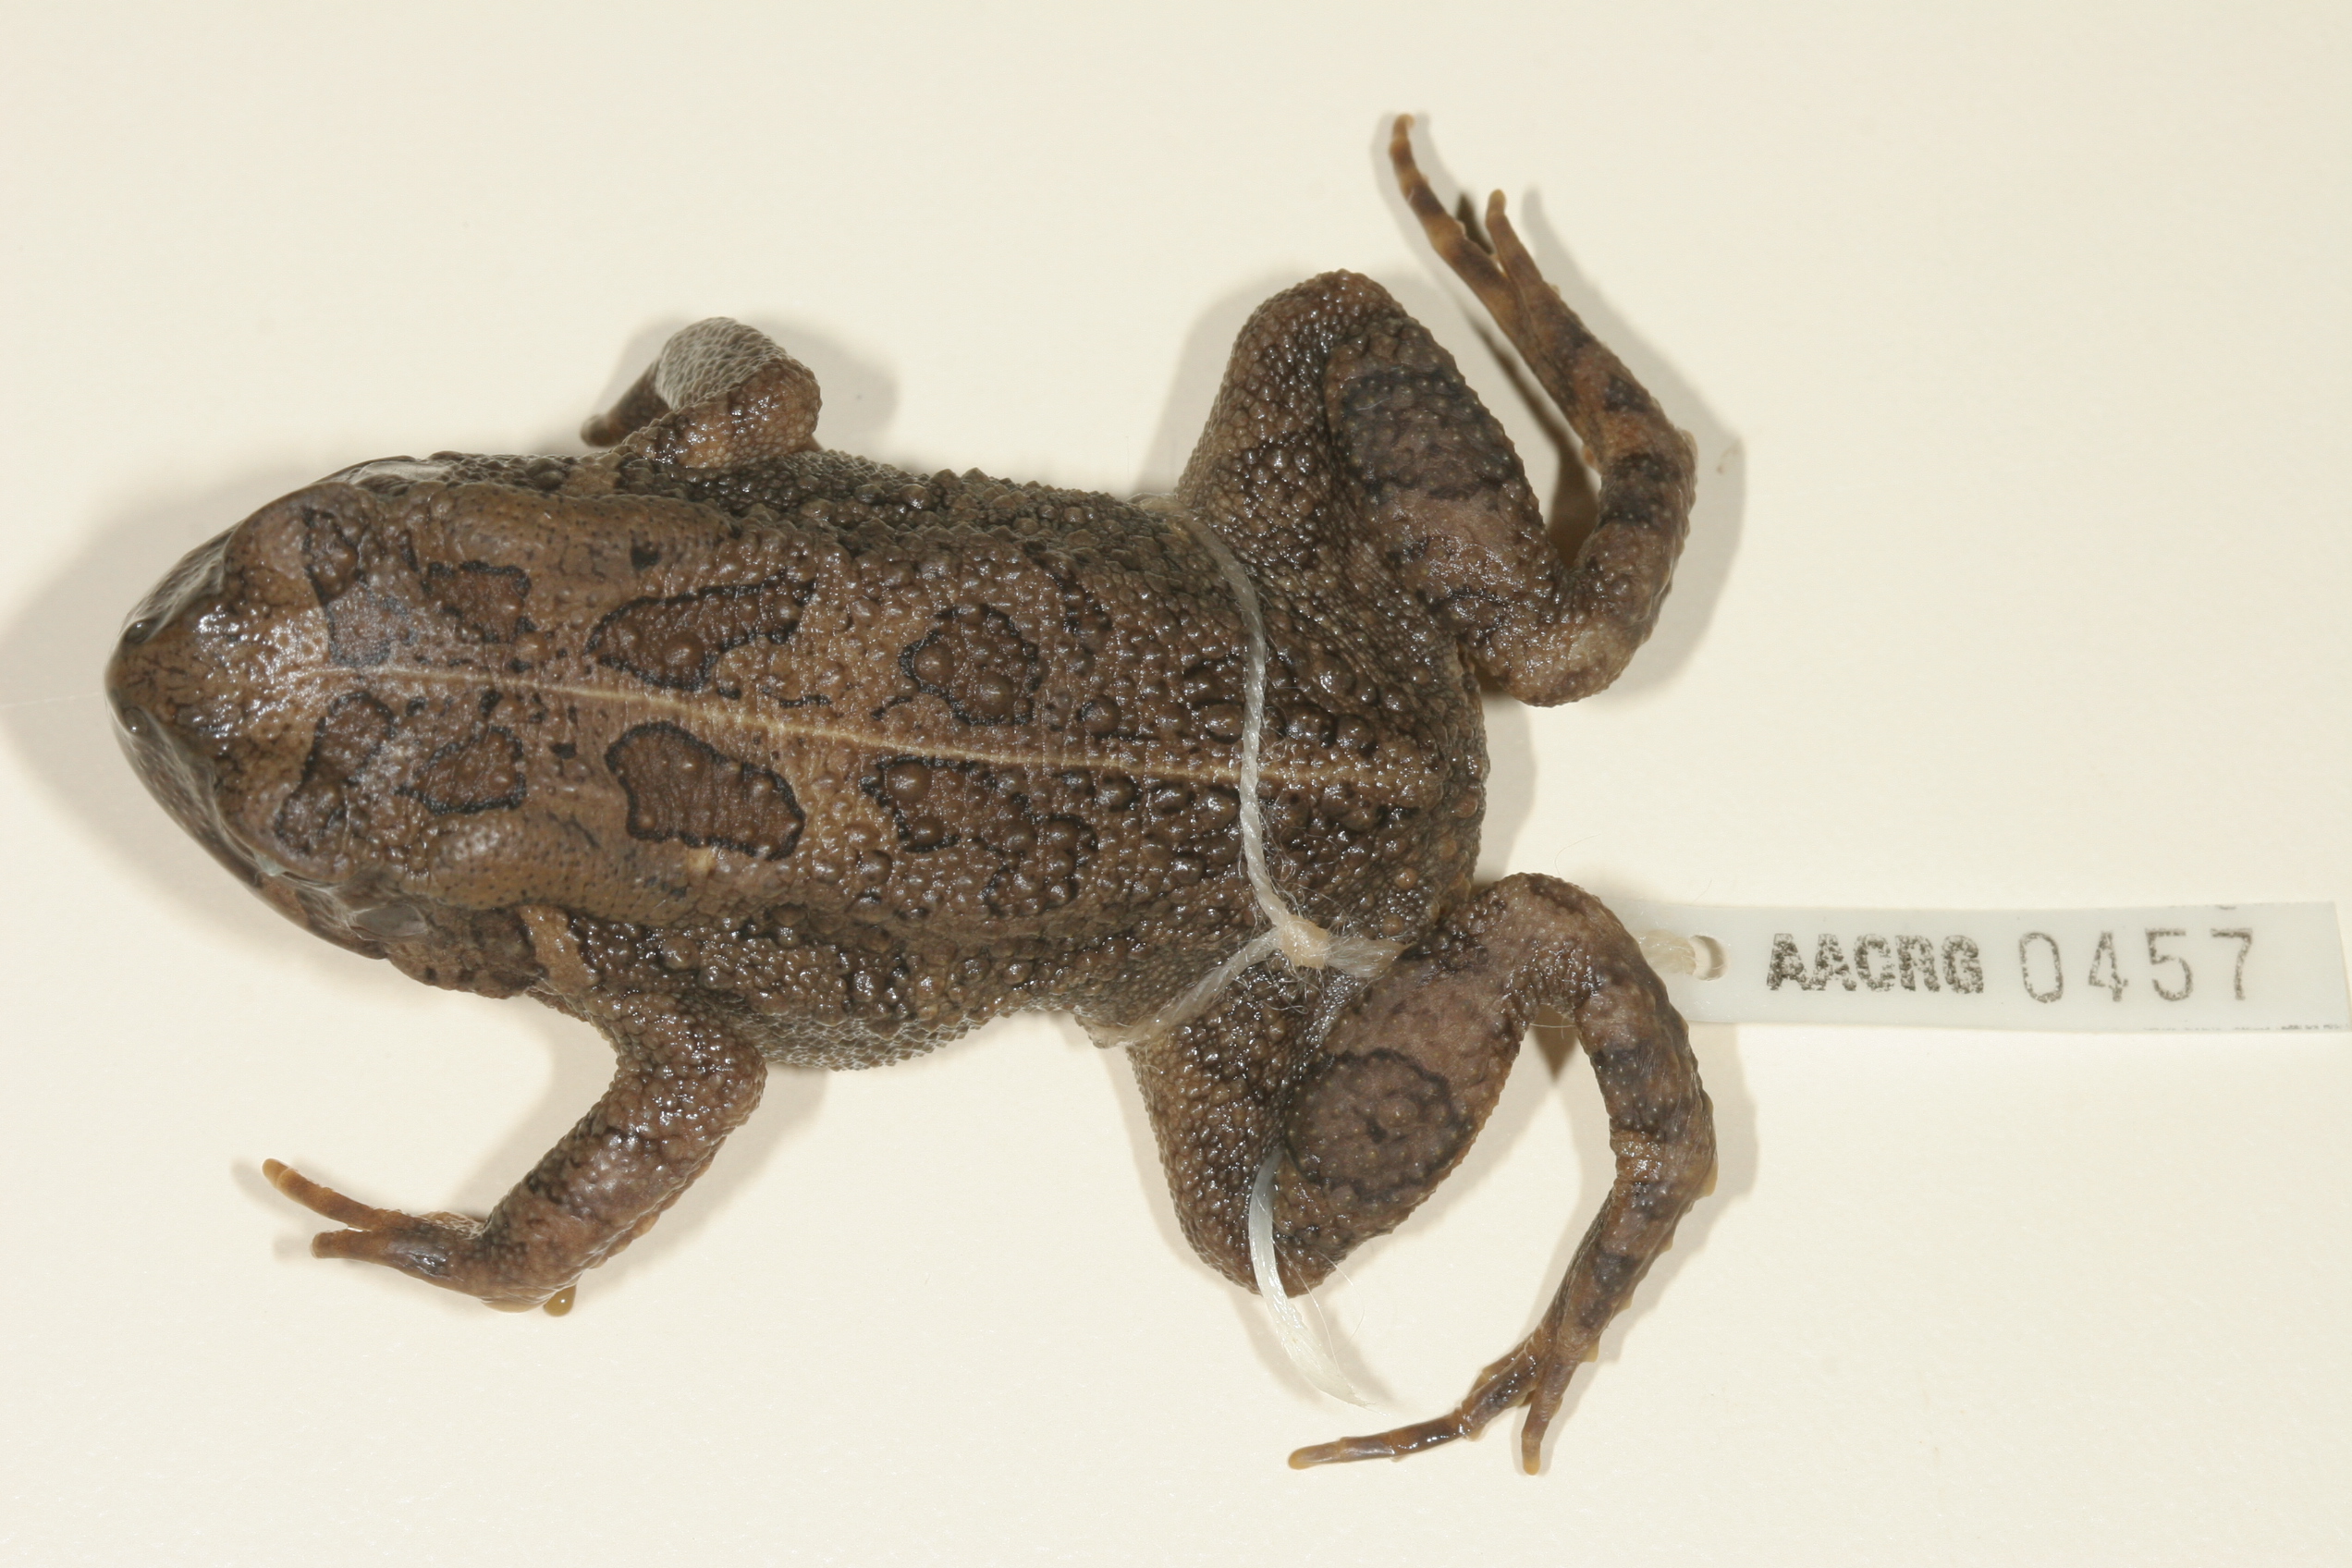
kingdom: Animalia
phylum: Chordata
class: Amphibia
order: Anura
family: Bufonidae
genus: Sclerophrys
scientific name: Sclerophrys garmani
